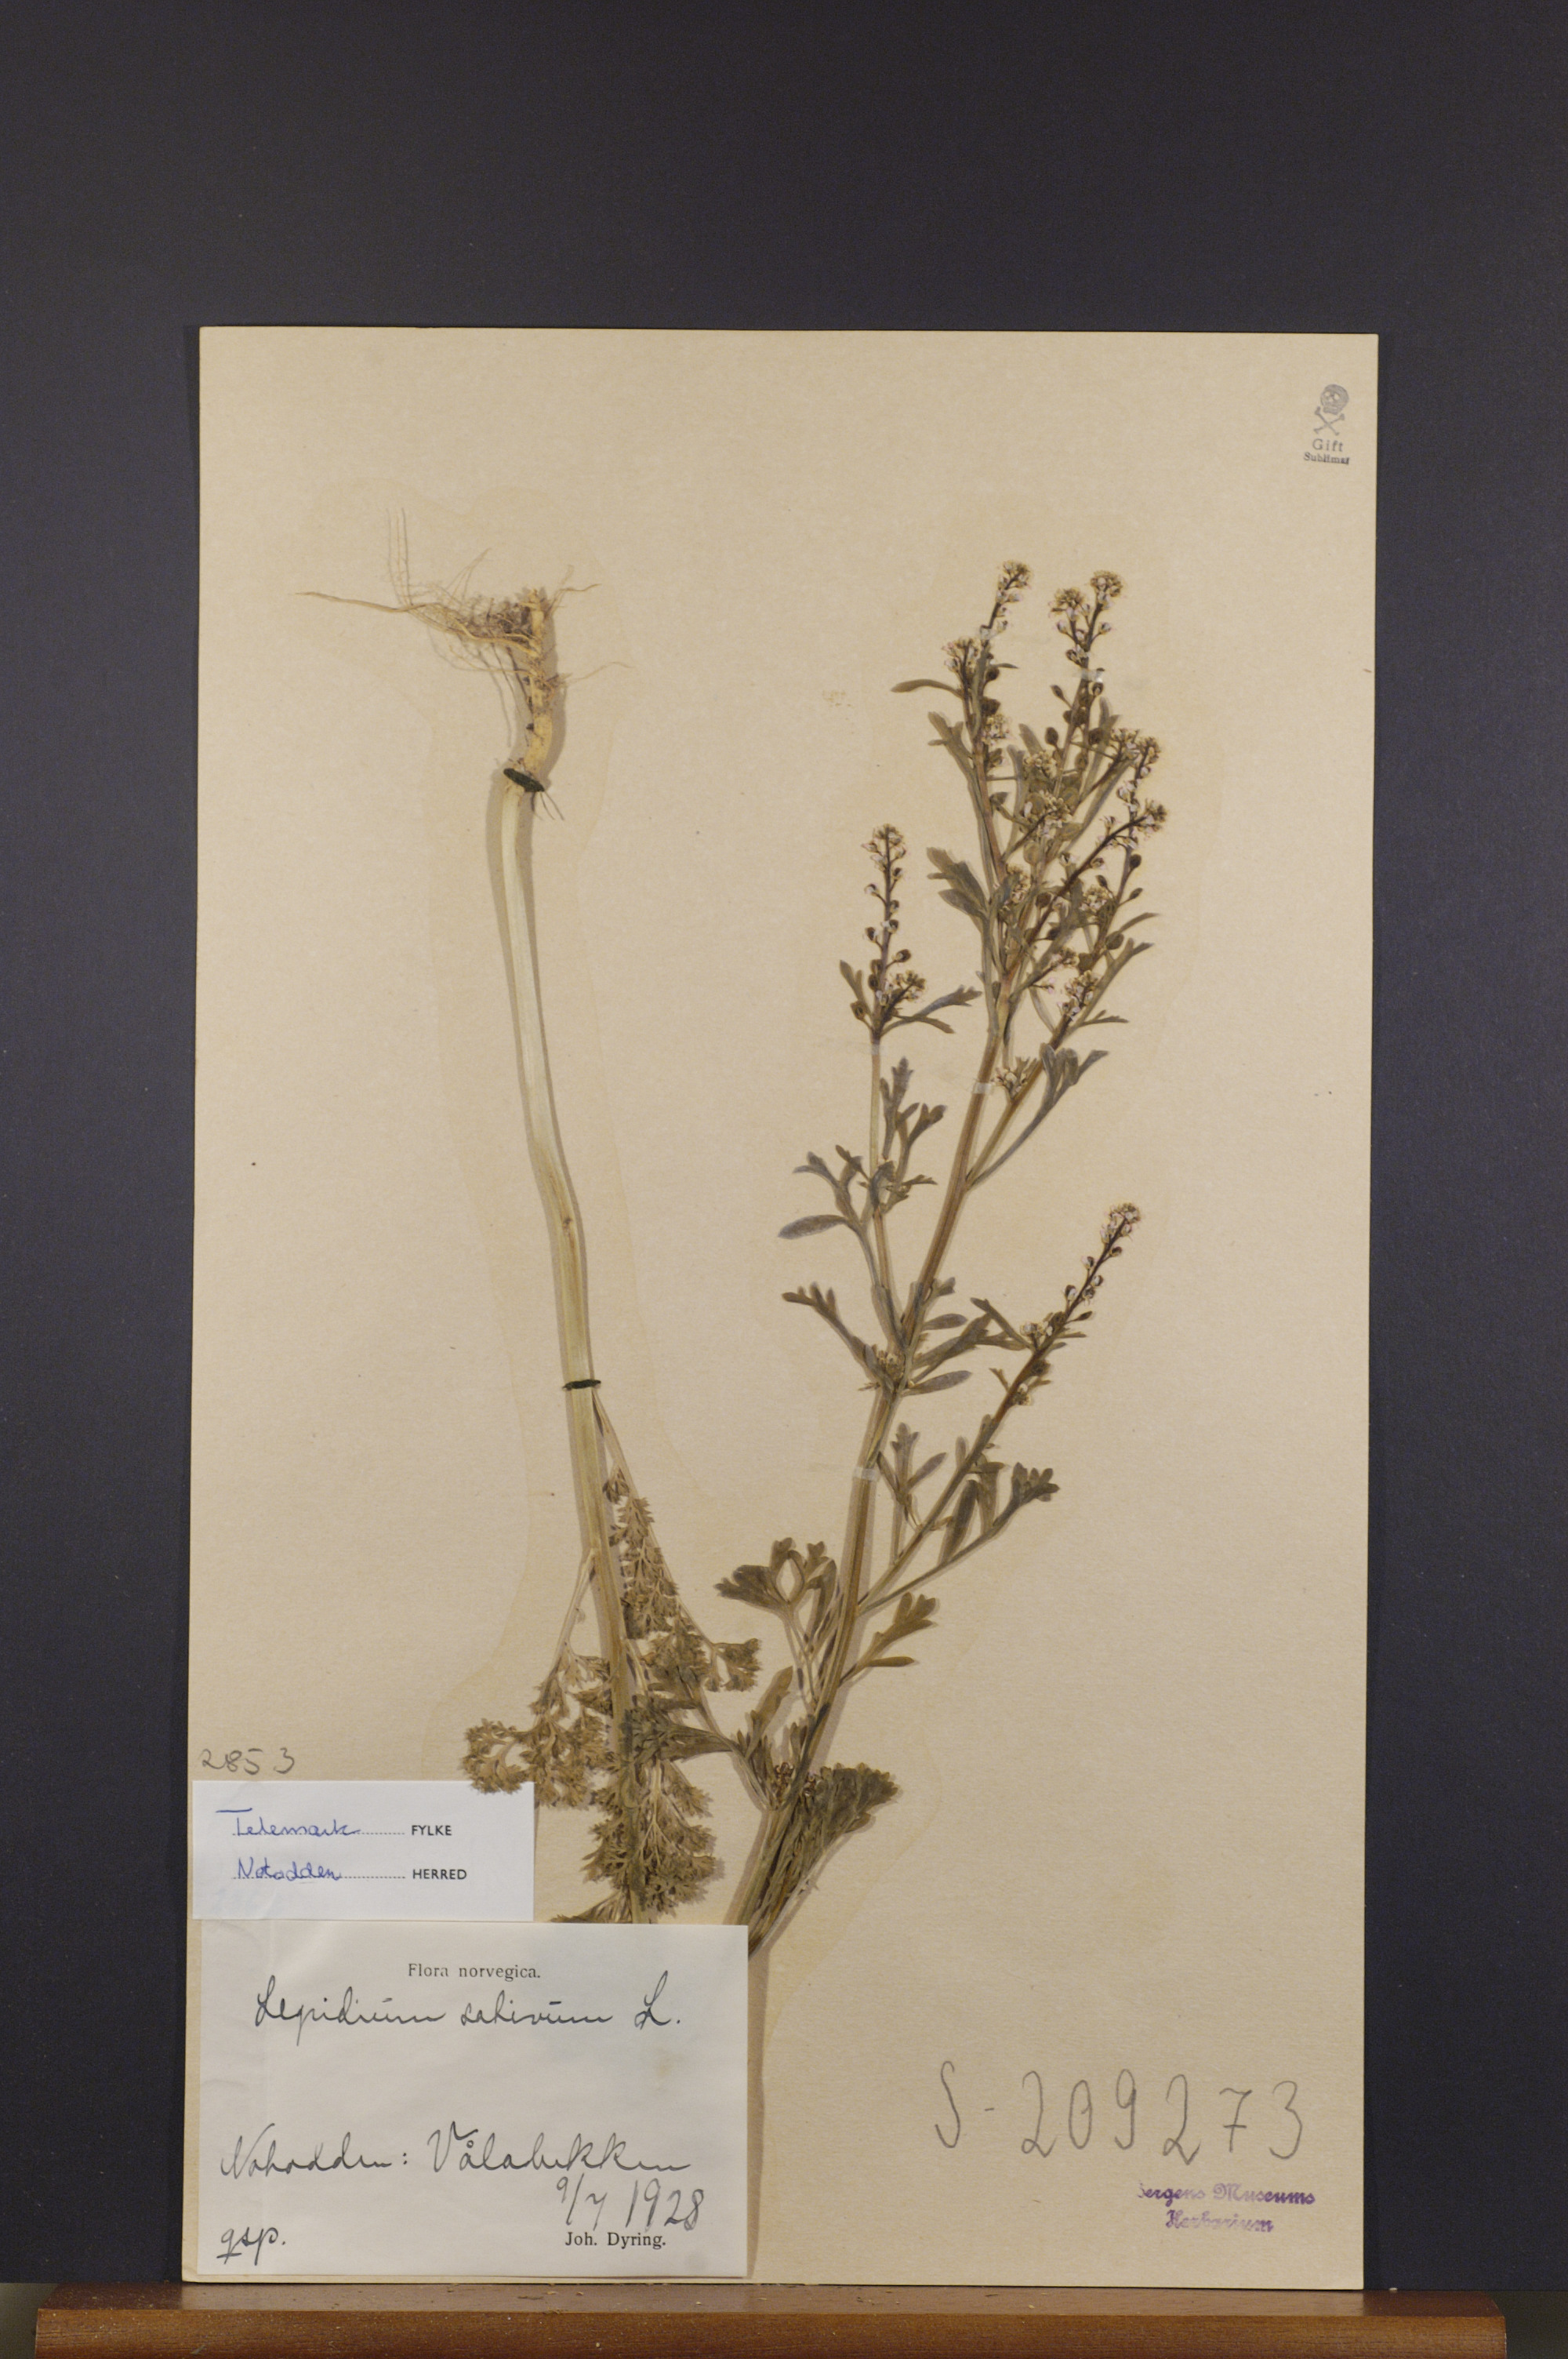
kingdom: Plantae
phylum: Tracheophyta
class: Magnoliopsida
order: Brassicales
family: Brassicaceae
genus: Lepidium
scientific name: Lepidium sativum
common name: Garden cress
